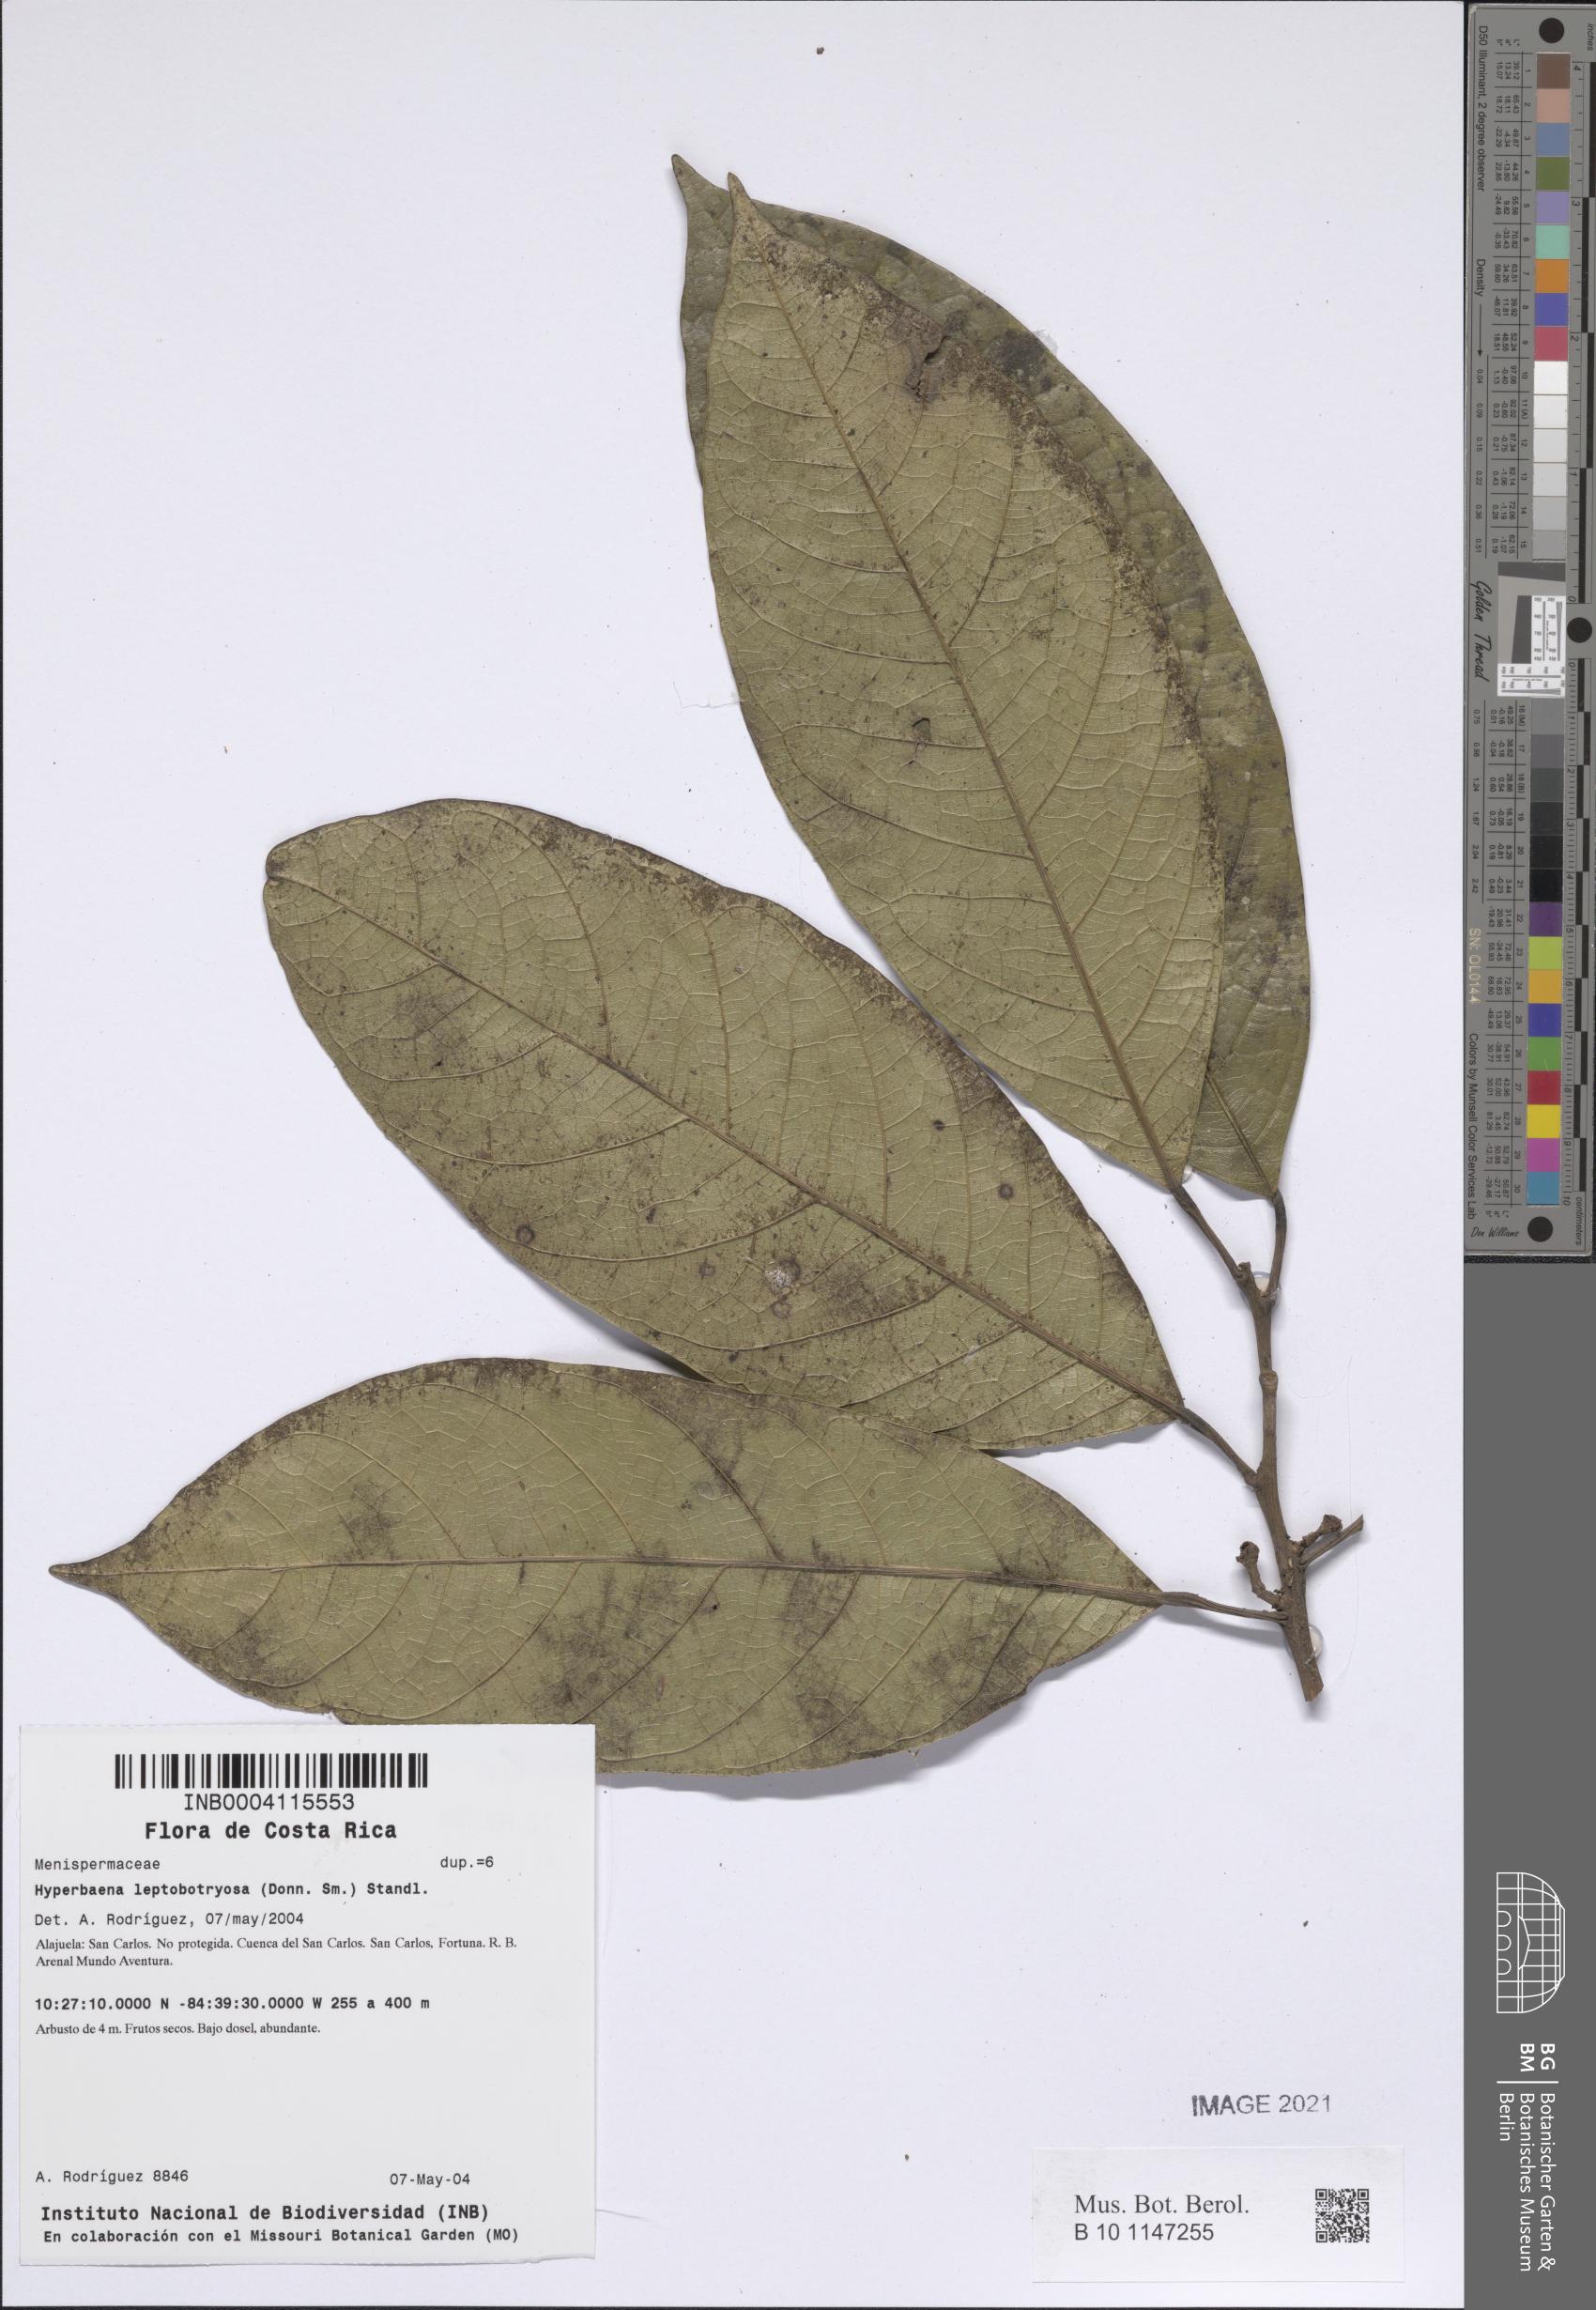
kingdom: Plantae
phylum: Tracheophyta
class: Magnoliopsida
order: Ranunculales
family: Menispermaceae
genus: Hyperbaena
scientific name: Hyperbaena leptobotryosa
